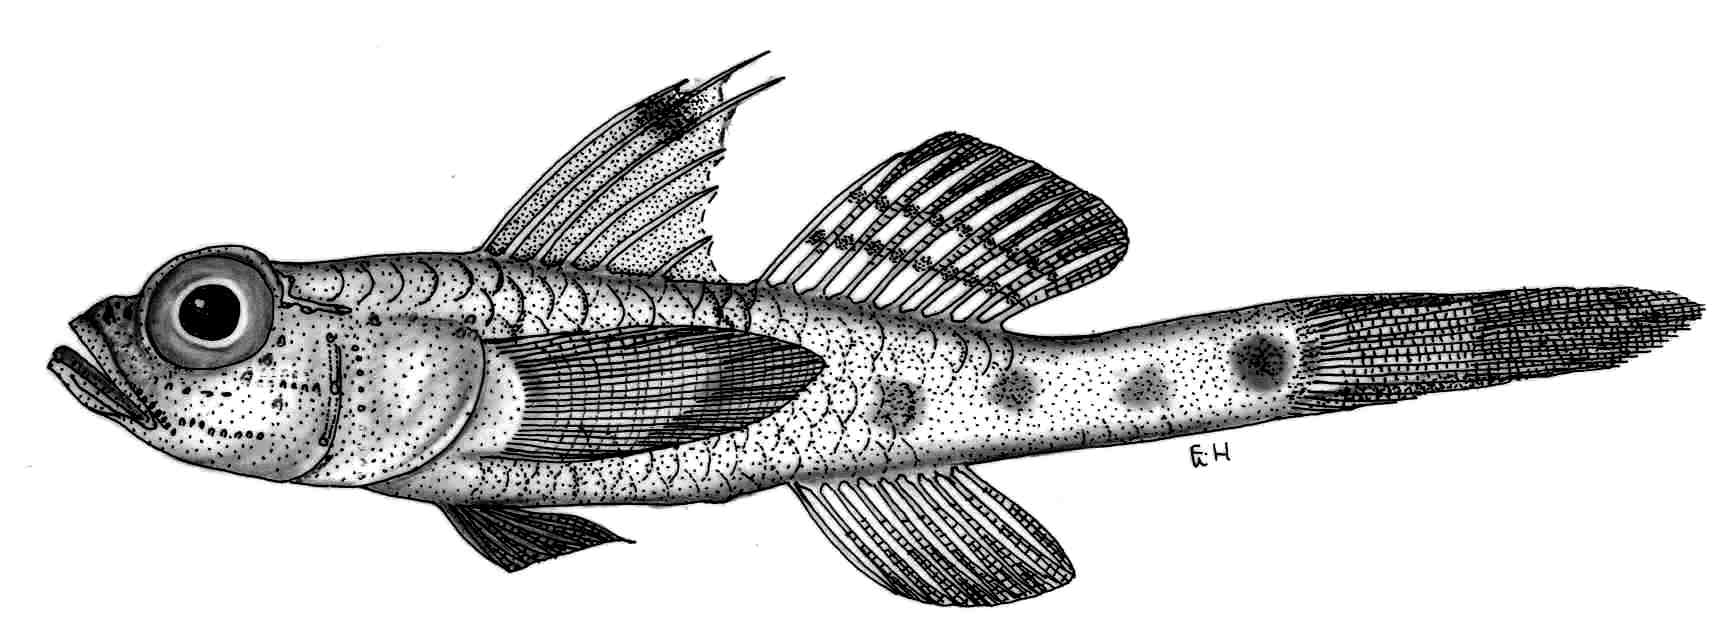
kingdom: Animalia
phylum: Chordata
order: Perciformes
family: Gobiidae
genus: Obliquogobius
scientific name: Obliquogobius turkayi
